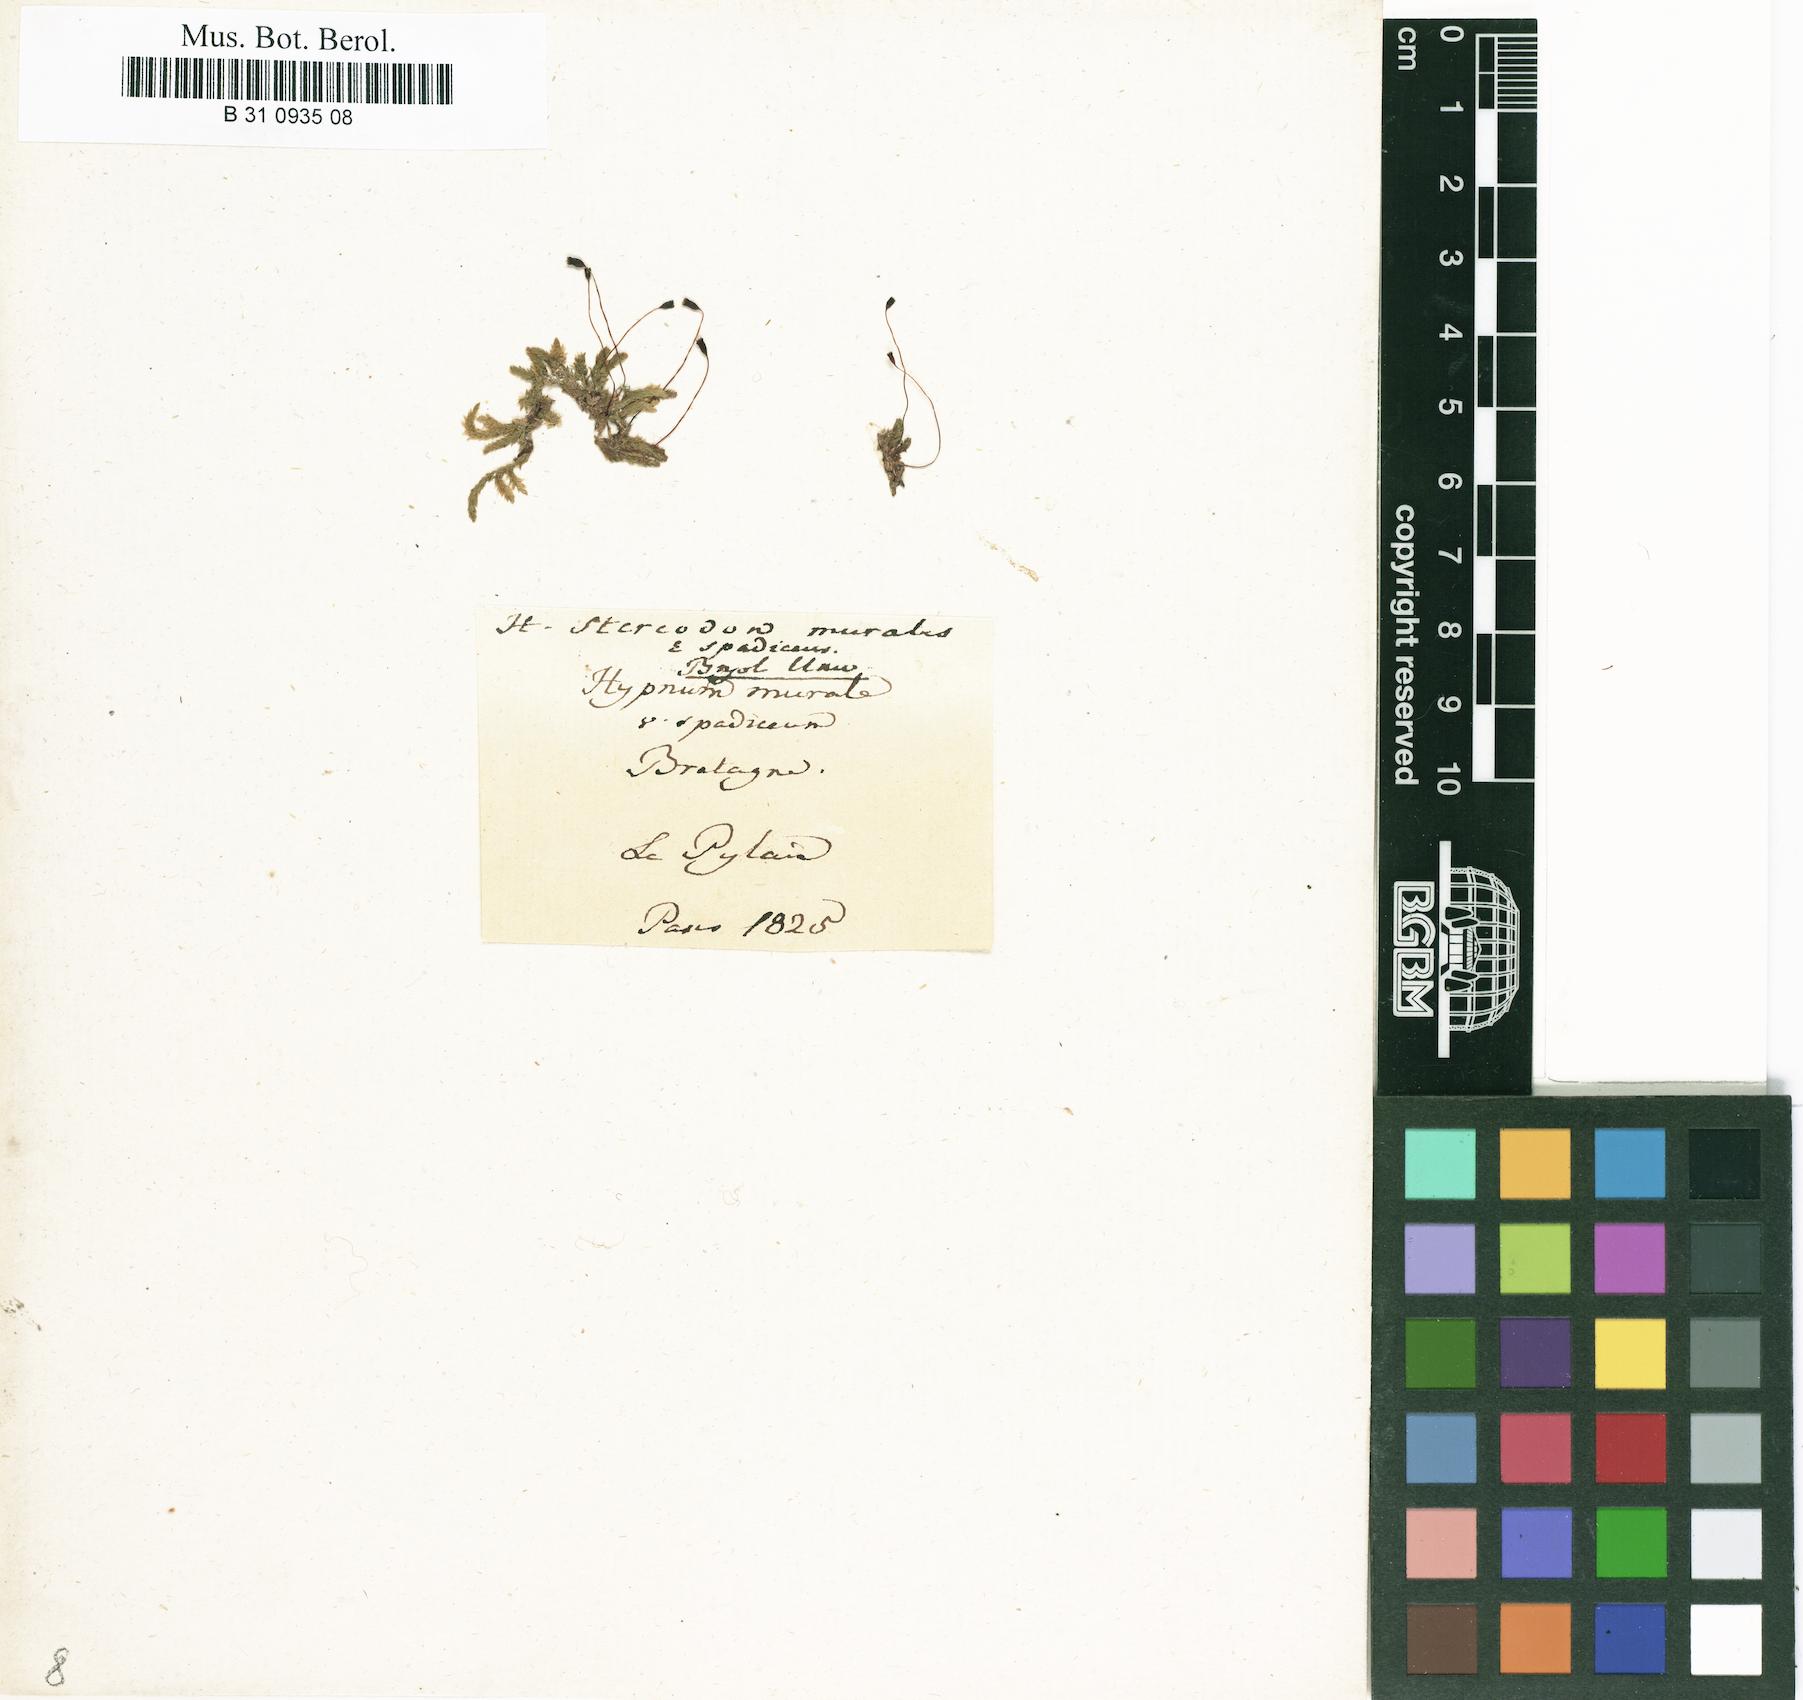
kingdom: Plantae
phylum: Bryophyta
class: Bryopsida
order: Hypnales
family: Brachytheciaceae
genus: Rhynchostegium
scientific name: Rhynchostegium murale
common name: Wall feather-moss
